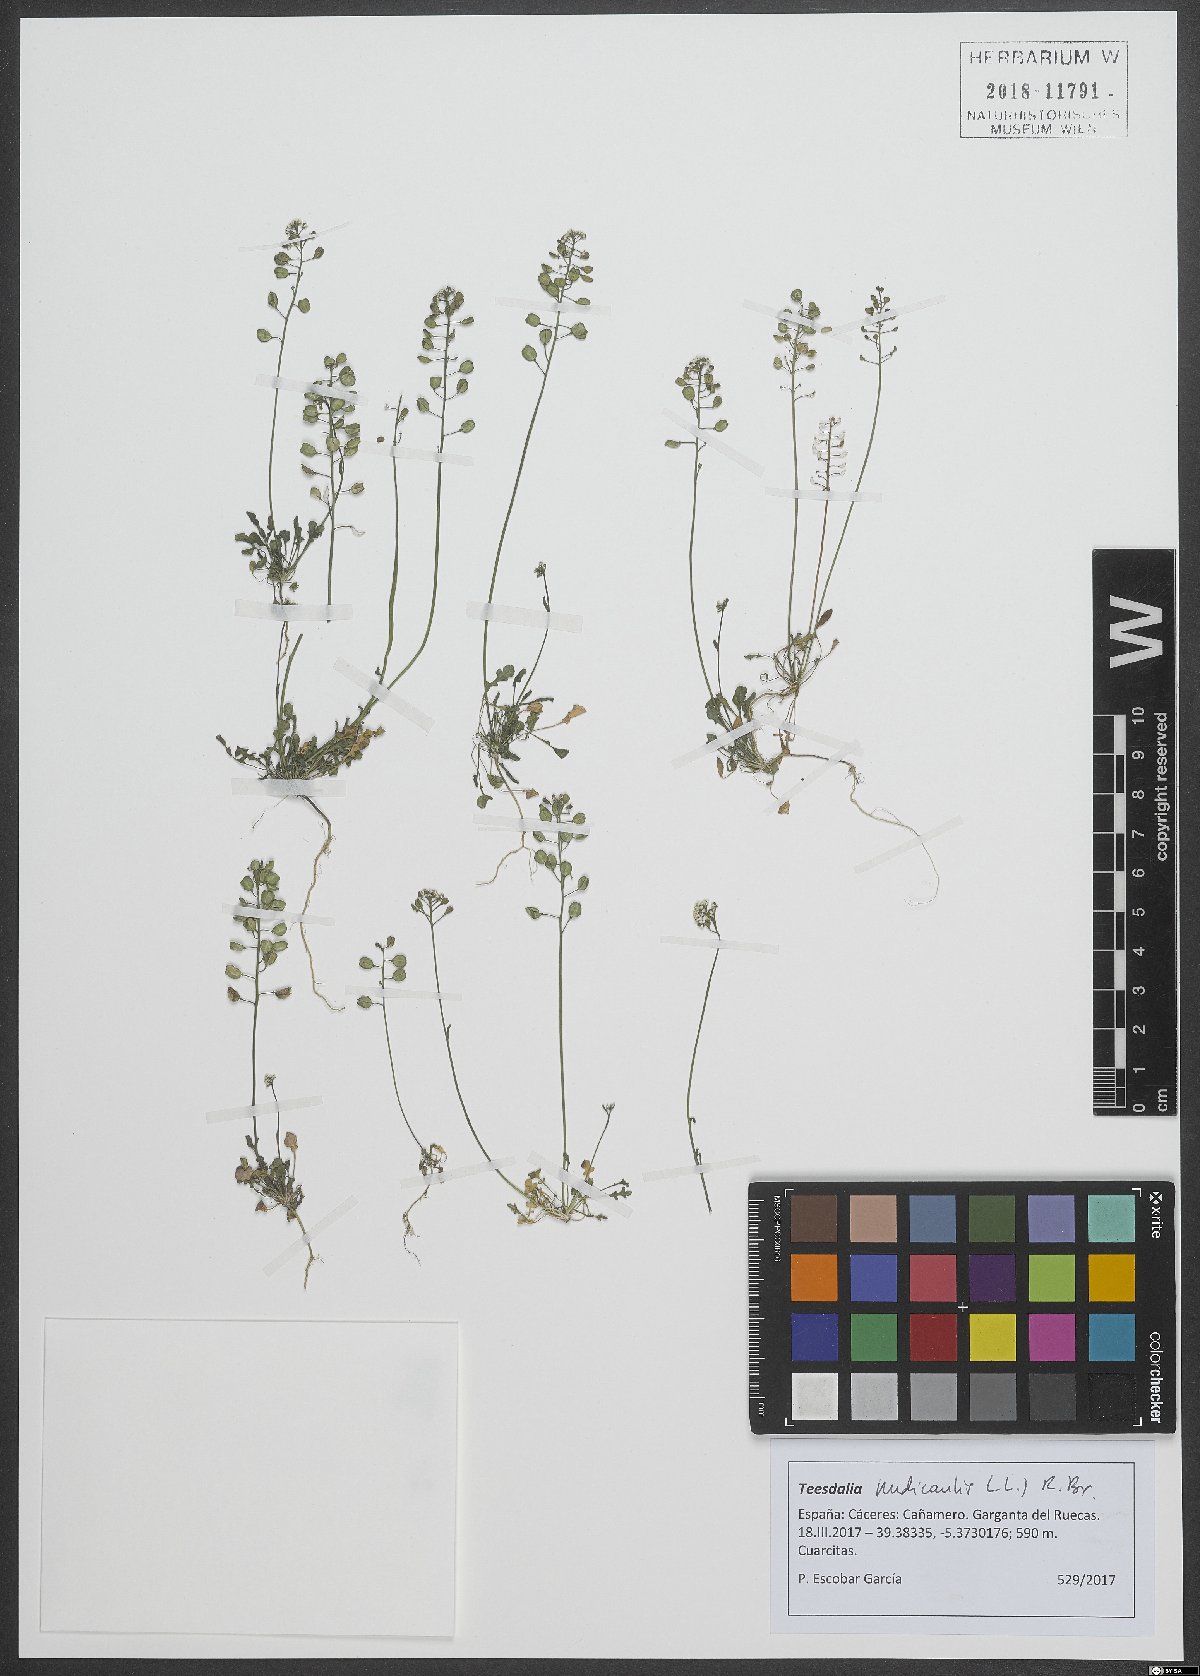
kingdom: Plantae
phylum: Tracheophyta
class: Magnoliopsida
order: Brassicales
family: Brassicaceae
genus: Teesdalia
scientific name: Teesdalia nudicaulis
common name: Shepherd's cress
